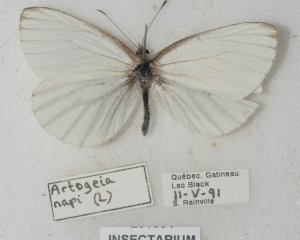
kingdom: Animalia
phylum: Arthropoda
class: Insecta
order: Lepidoptera
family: Pieridae
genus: Pieris
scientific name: Pieris oleracea
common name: Mustard White
